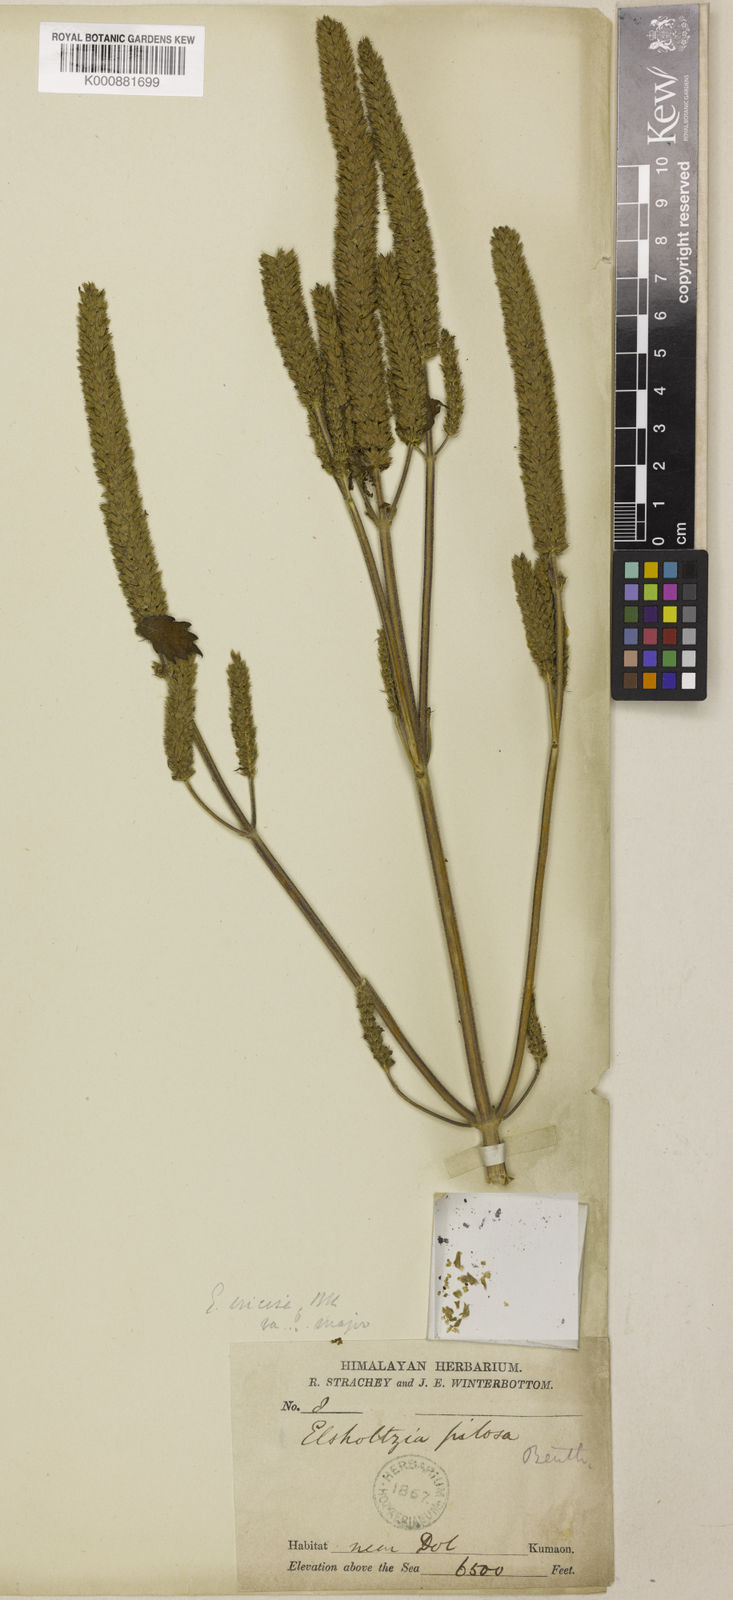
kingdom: Plantae
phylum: Tracheophyta
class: Magnoliopsida
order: Lamiales
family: Lamiaceae
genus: Elsholtzia
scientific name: Elsholtzia stachyodes
